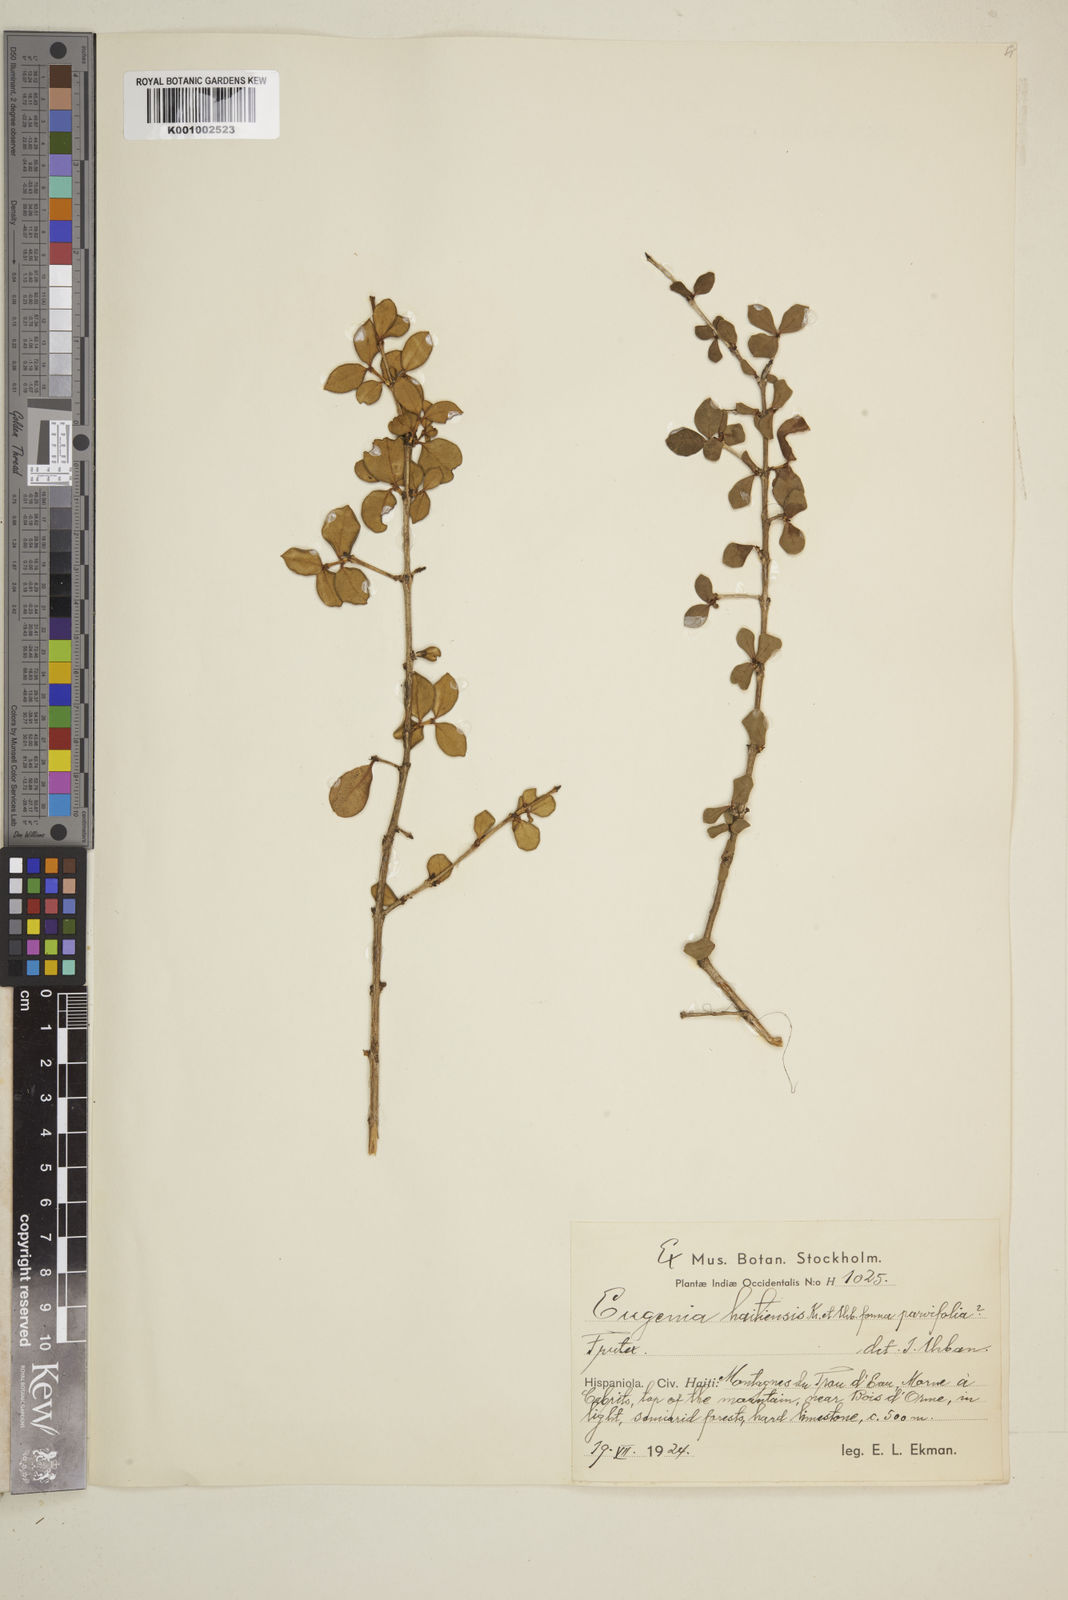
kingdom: Plantae
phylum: Tracheophyta
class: Magnoliopsida
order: Myrtales
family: Myrtaceae
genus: Eugenia
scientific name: Eugenia haitiensis
